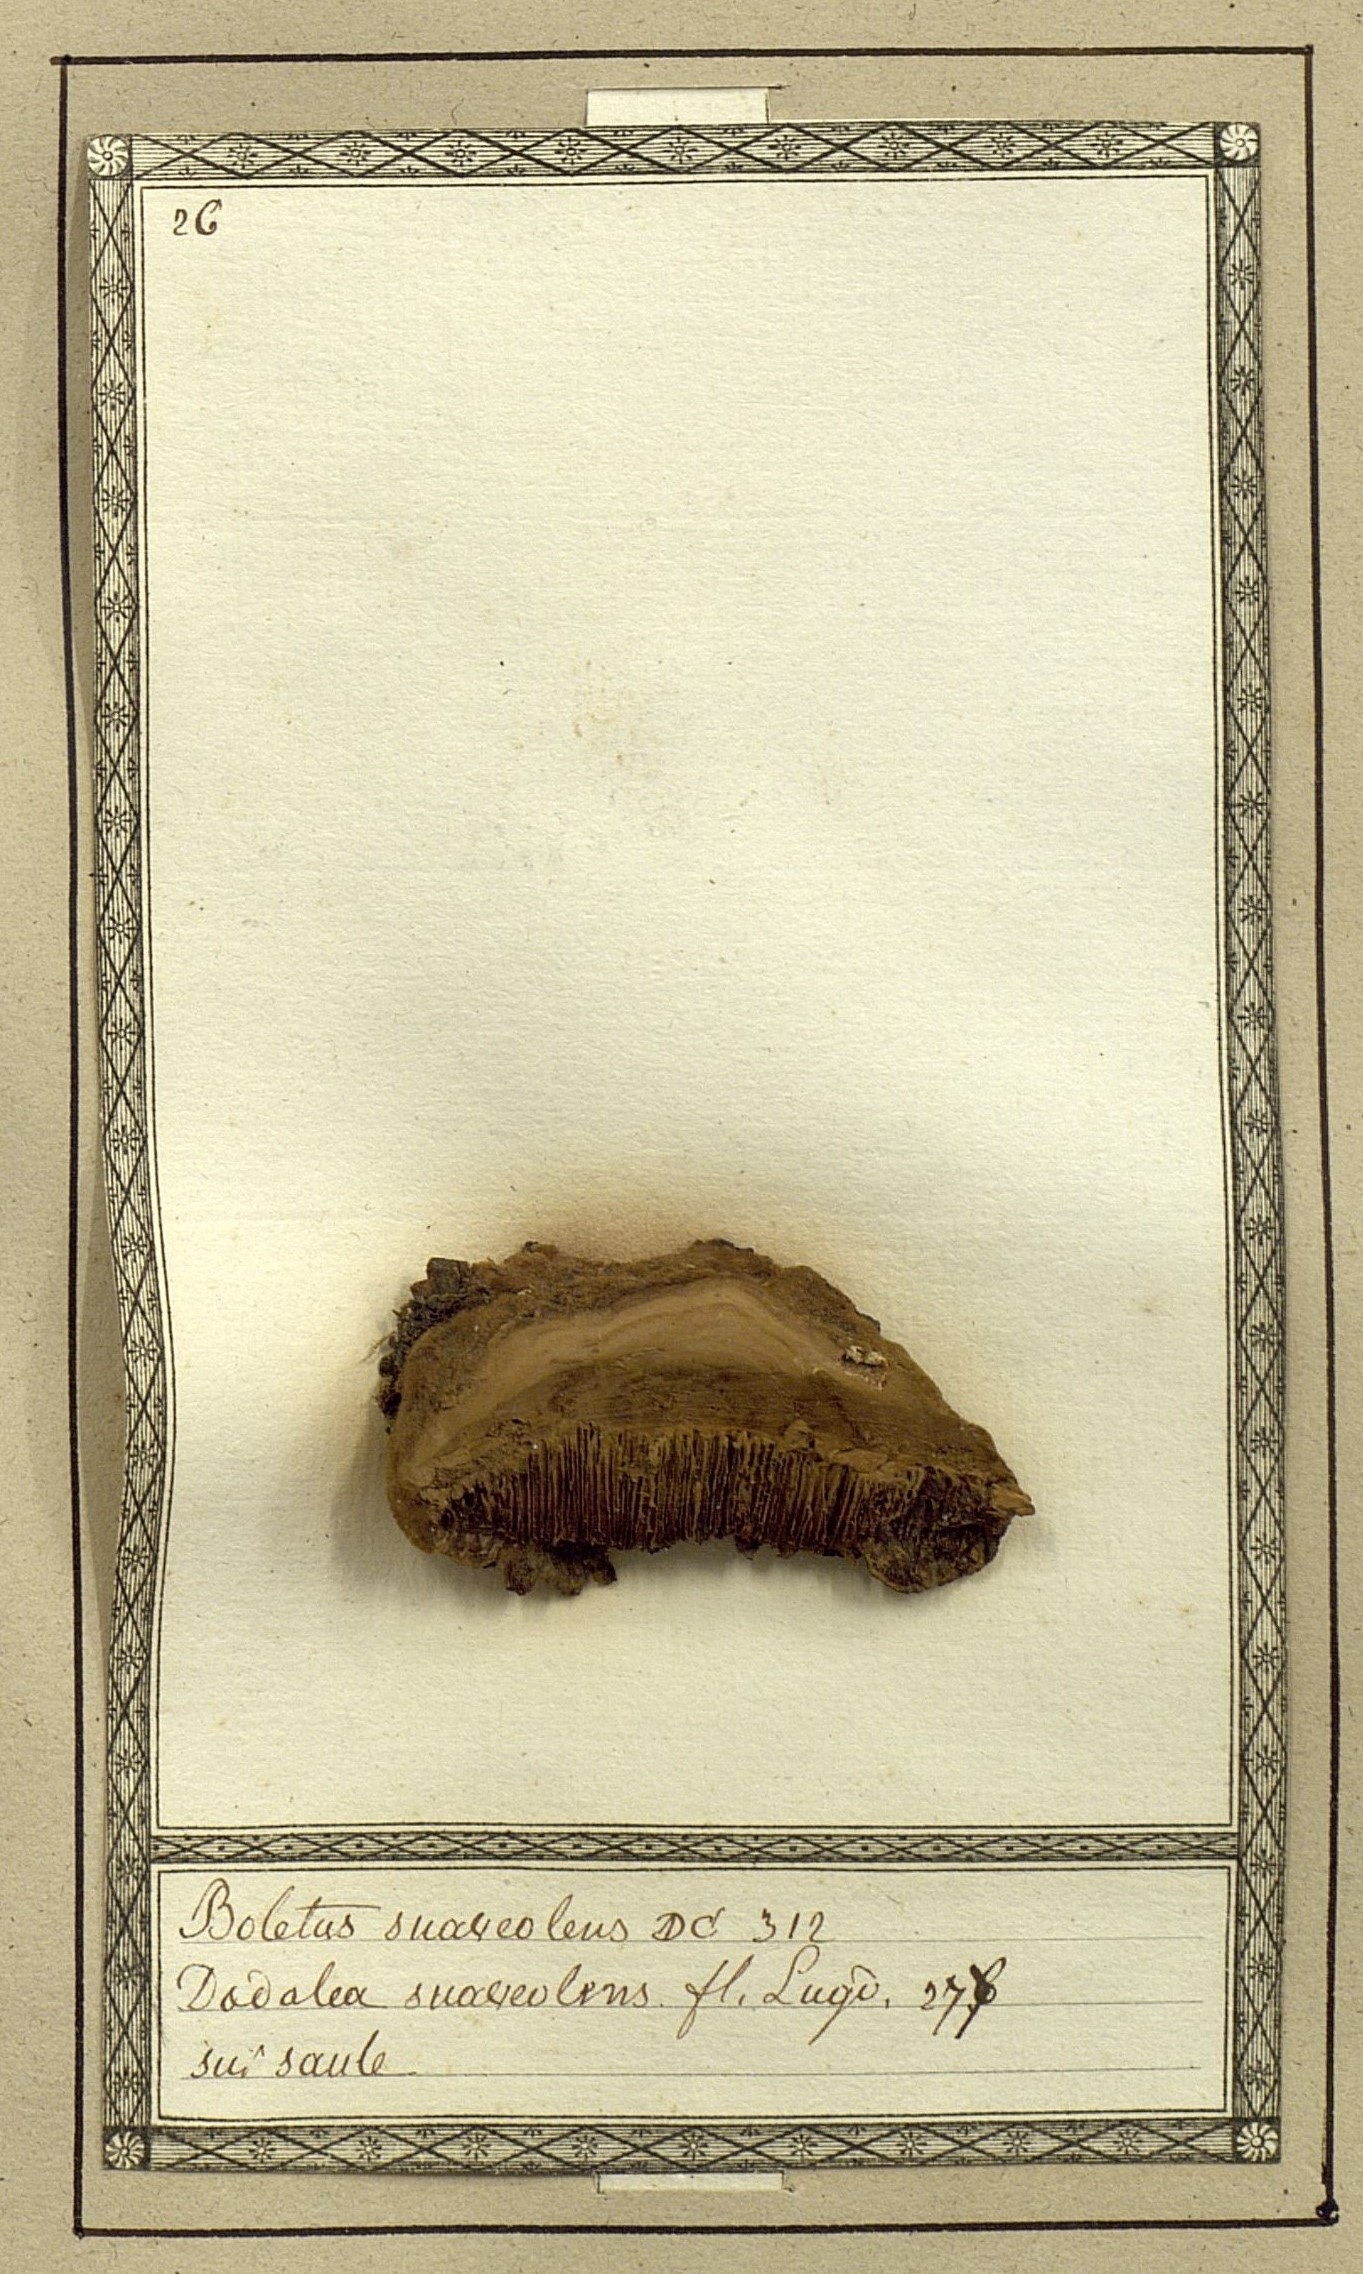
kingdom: Fungi
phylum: Basidiomycota
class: Agaricomycetes
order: Polyporales
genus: Amaropostia
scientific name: Amaropostia stiptica
